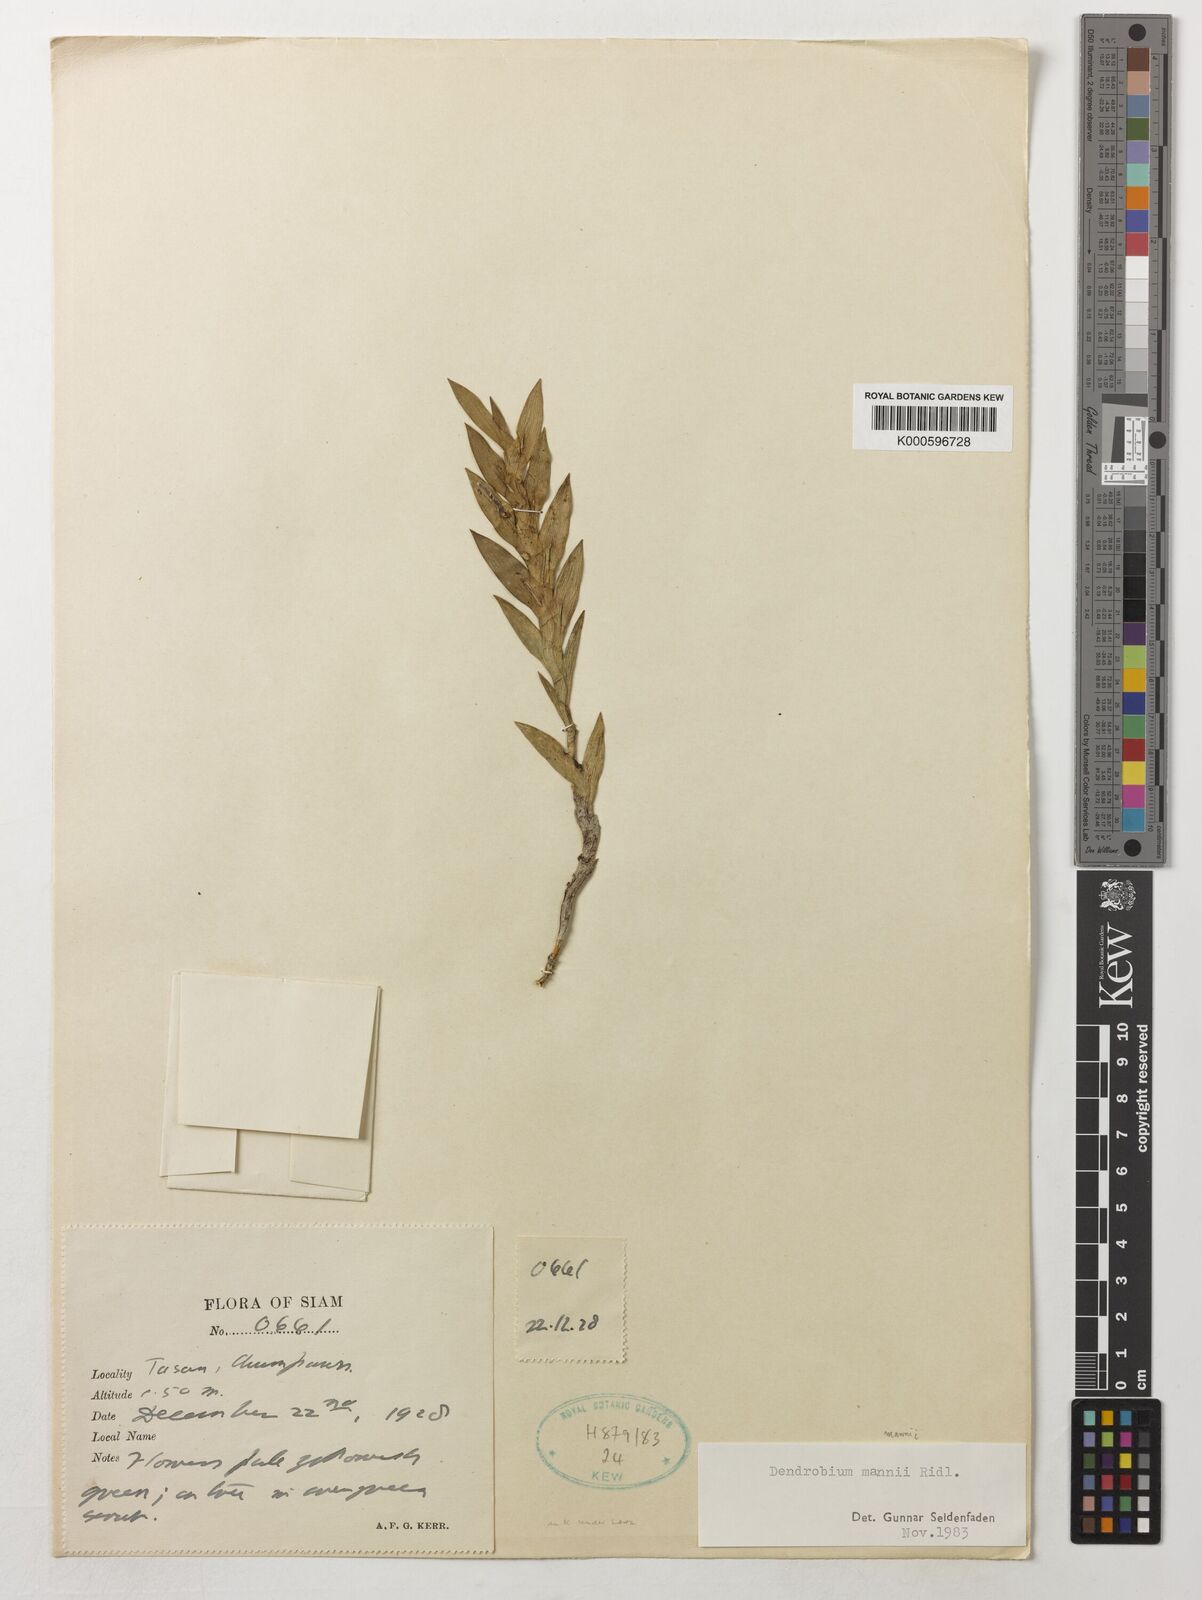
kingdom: Plantae
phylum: Tracheophyta
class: Liliopsida
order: Asparagales
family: Orchidaceae
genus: Dendrobium
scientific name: Dendrobium mannii
